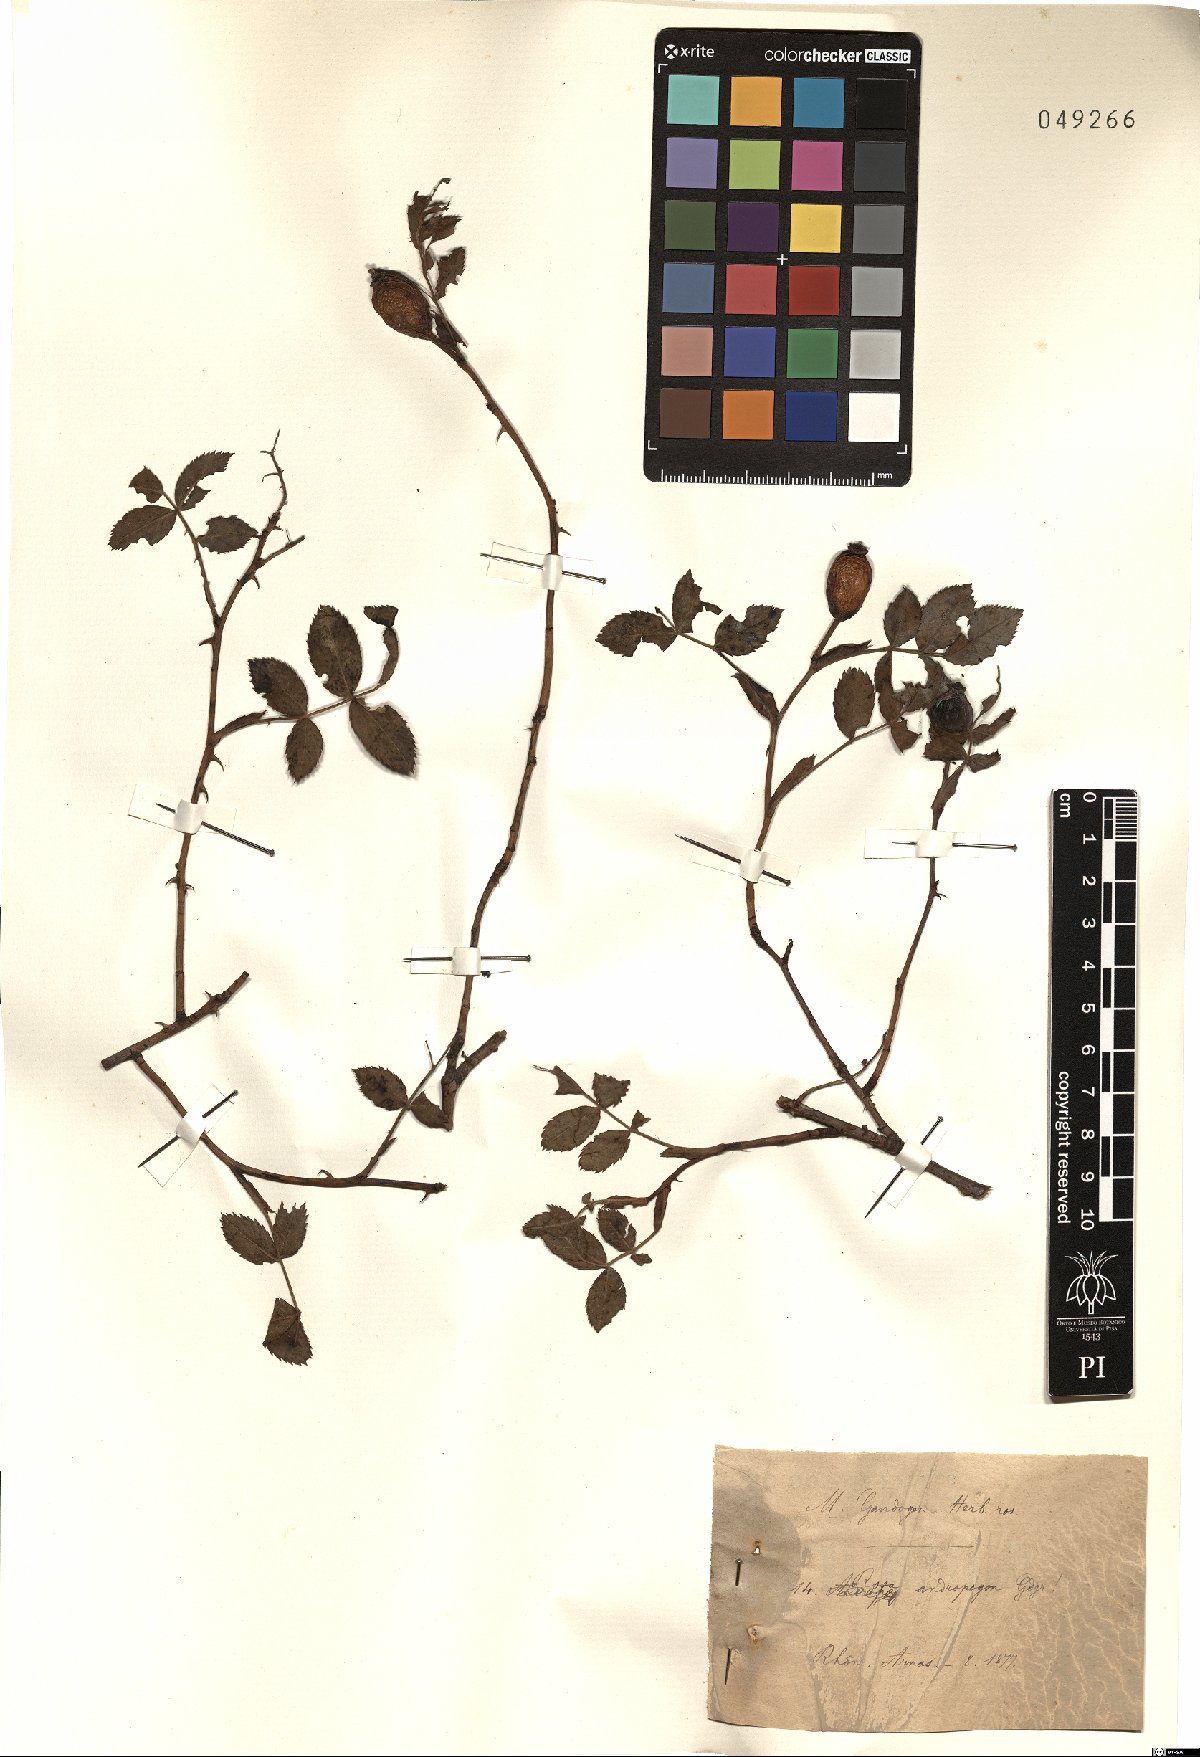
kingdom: Plantae
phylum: Tracheophyta
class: Magnoliopsida
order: Rosales
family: Rosaceae
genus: Rosa
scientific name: Rosa andropogon
